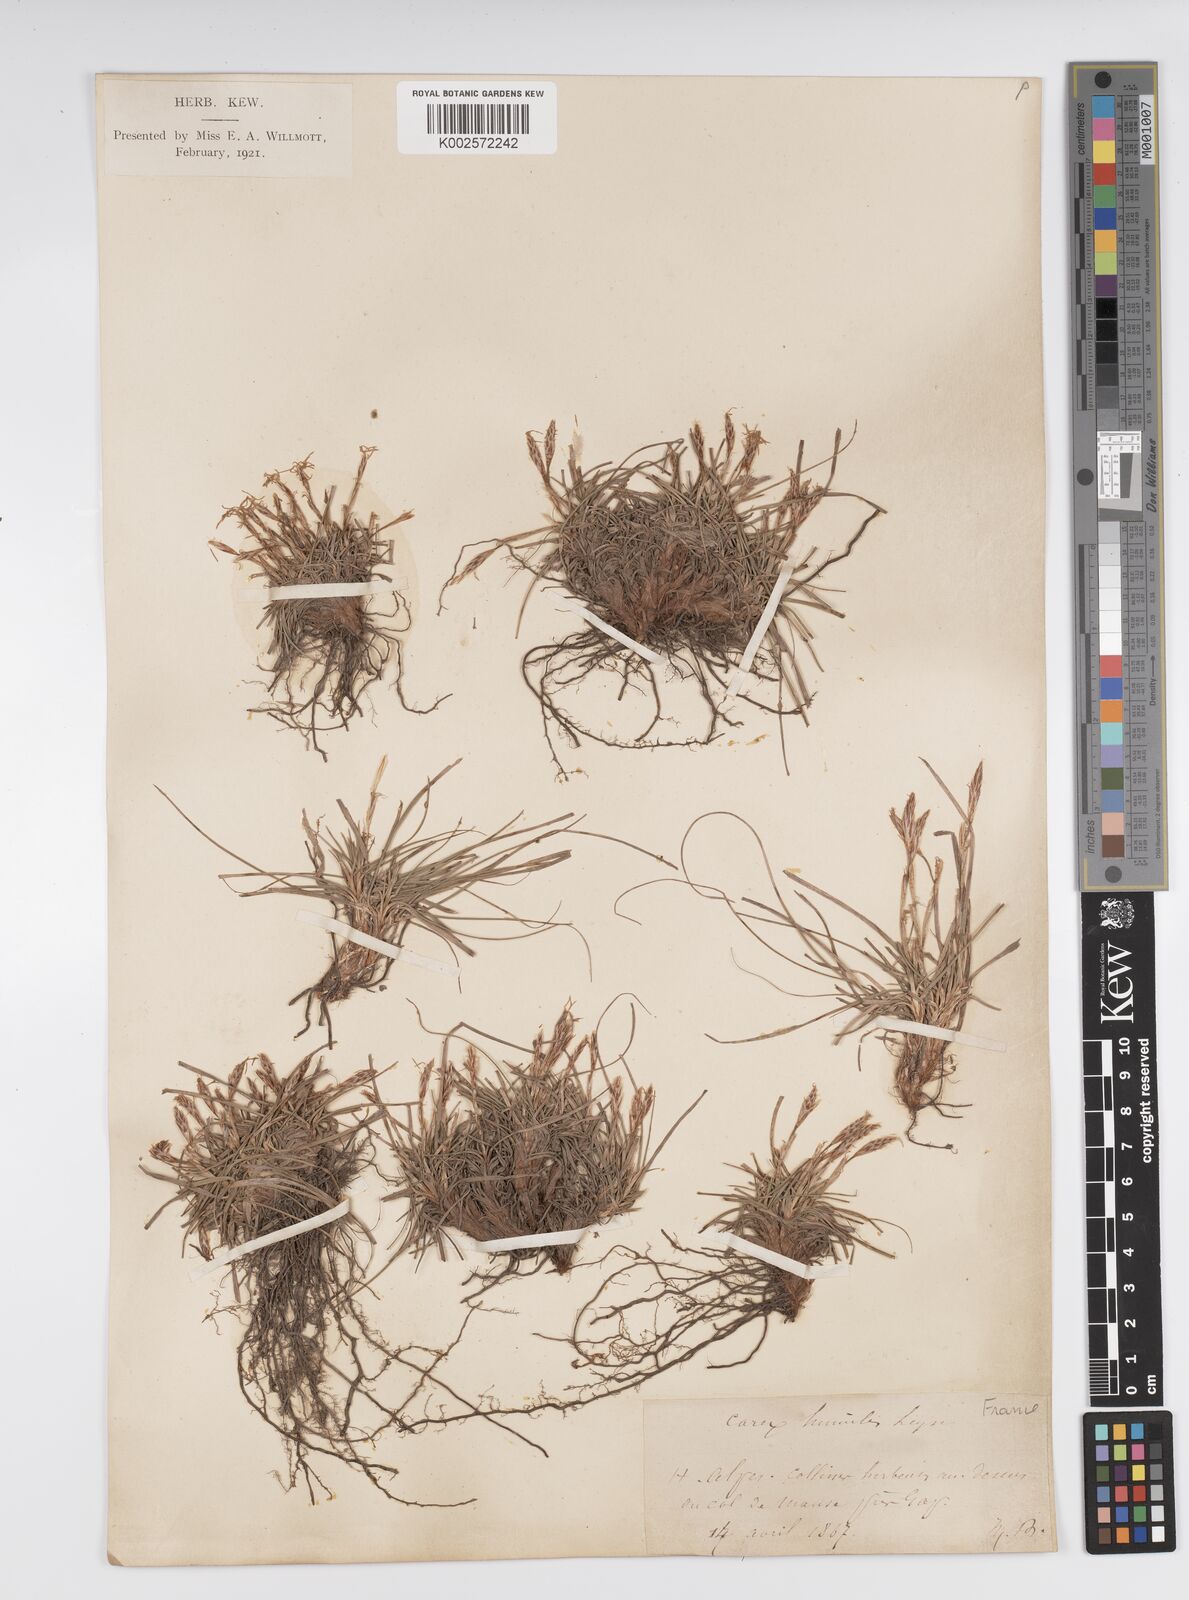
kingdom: Plantae
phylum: Tracheophyta
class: Liliopsida
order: Poales
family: Cyperaceae
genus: Carex
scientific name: Carex humilis
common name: Dwarf sedge
